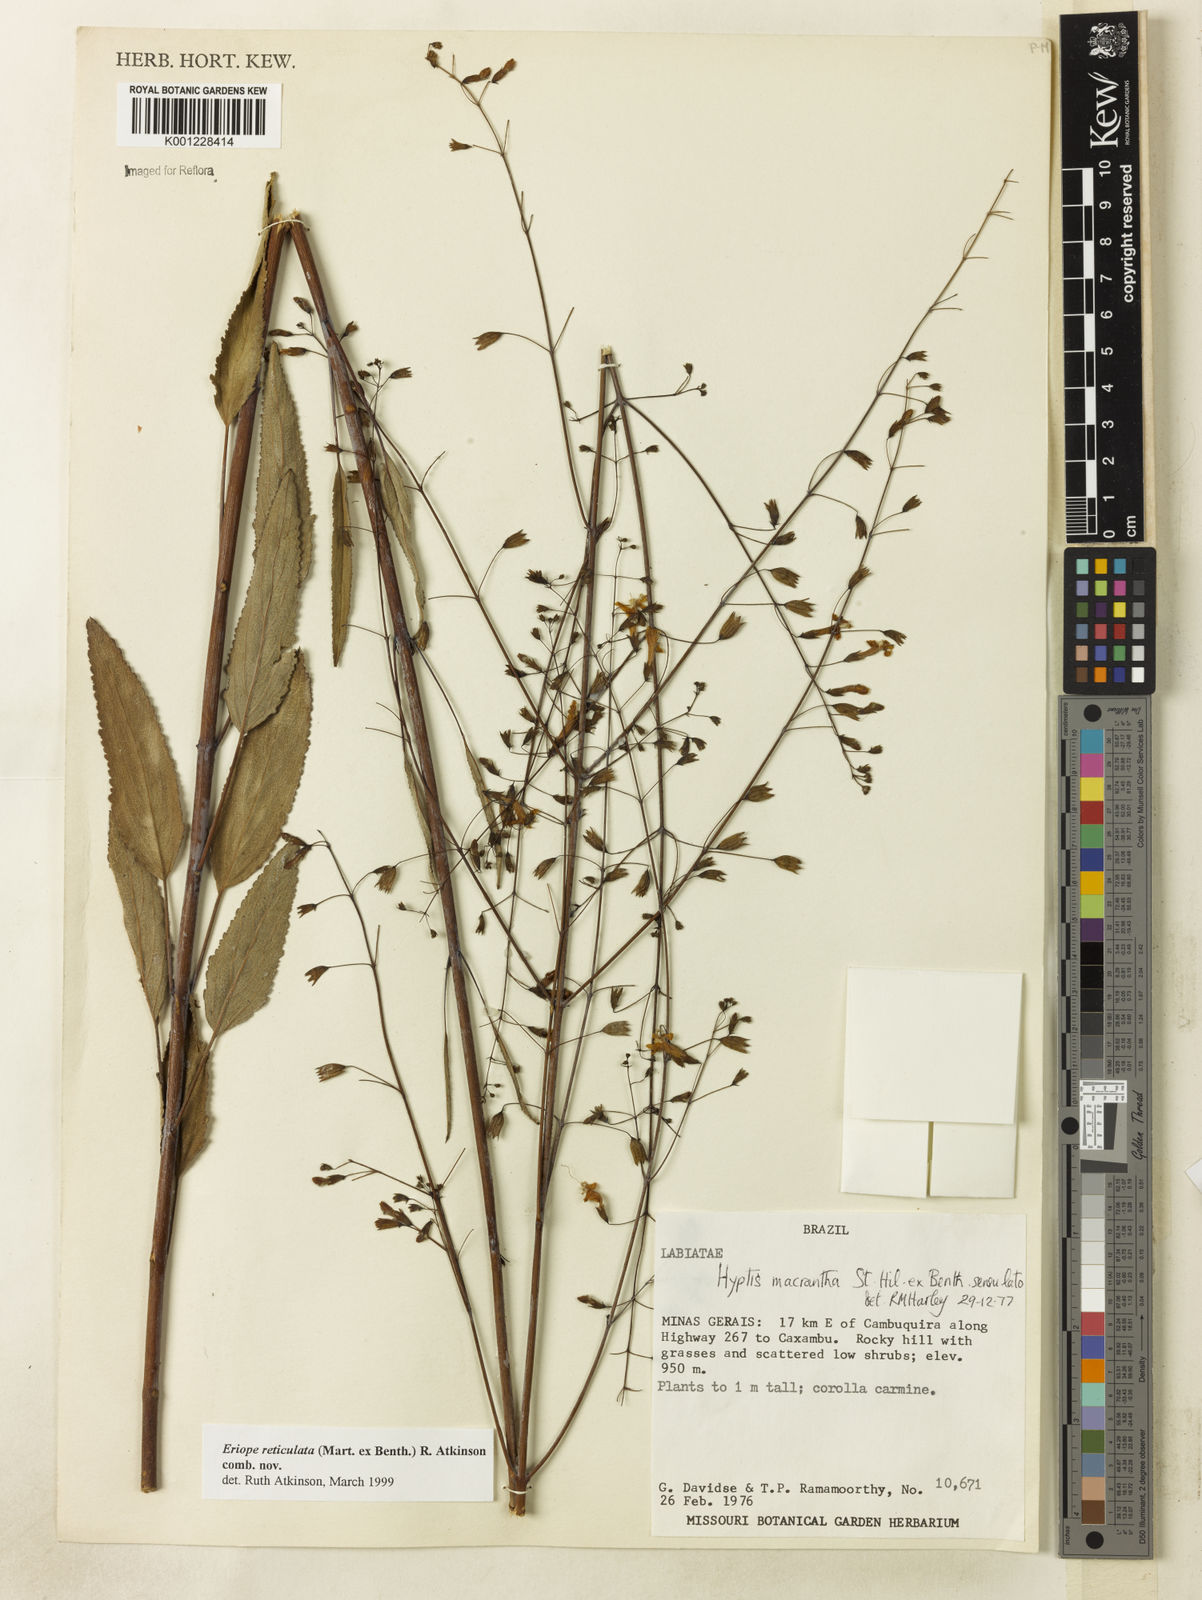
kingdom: Plantae
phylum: Tracheophyta
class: Magnoliopsida
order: Lamiales
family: Lamiaceae
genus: Hypenia
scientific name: Hypenia reticulata
